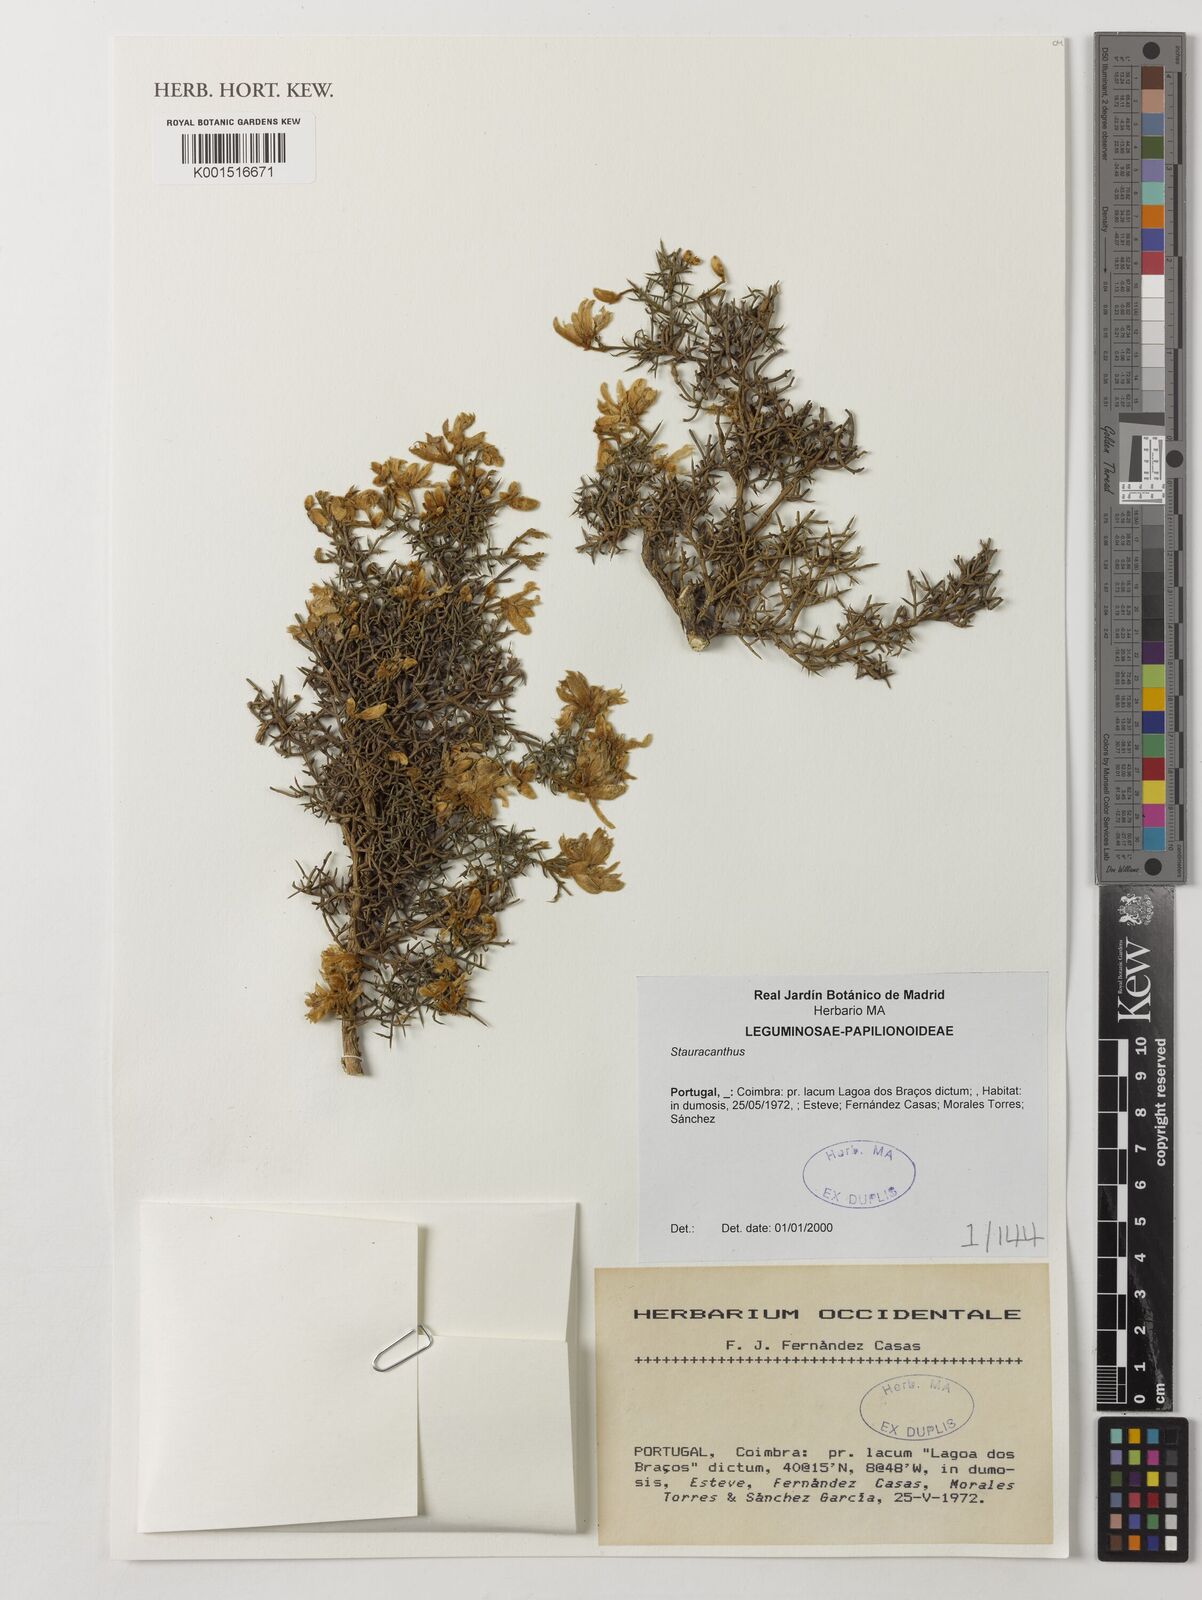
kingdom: Plantae
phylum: Tracheophyta
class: Magnoliopsida
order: Fabales
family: Fabaceae
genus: Stauracanthus
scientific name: Stauracanthus
